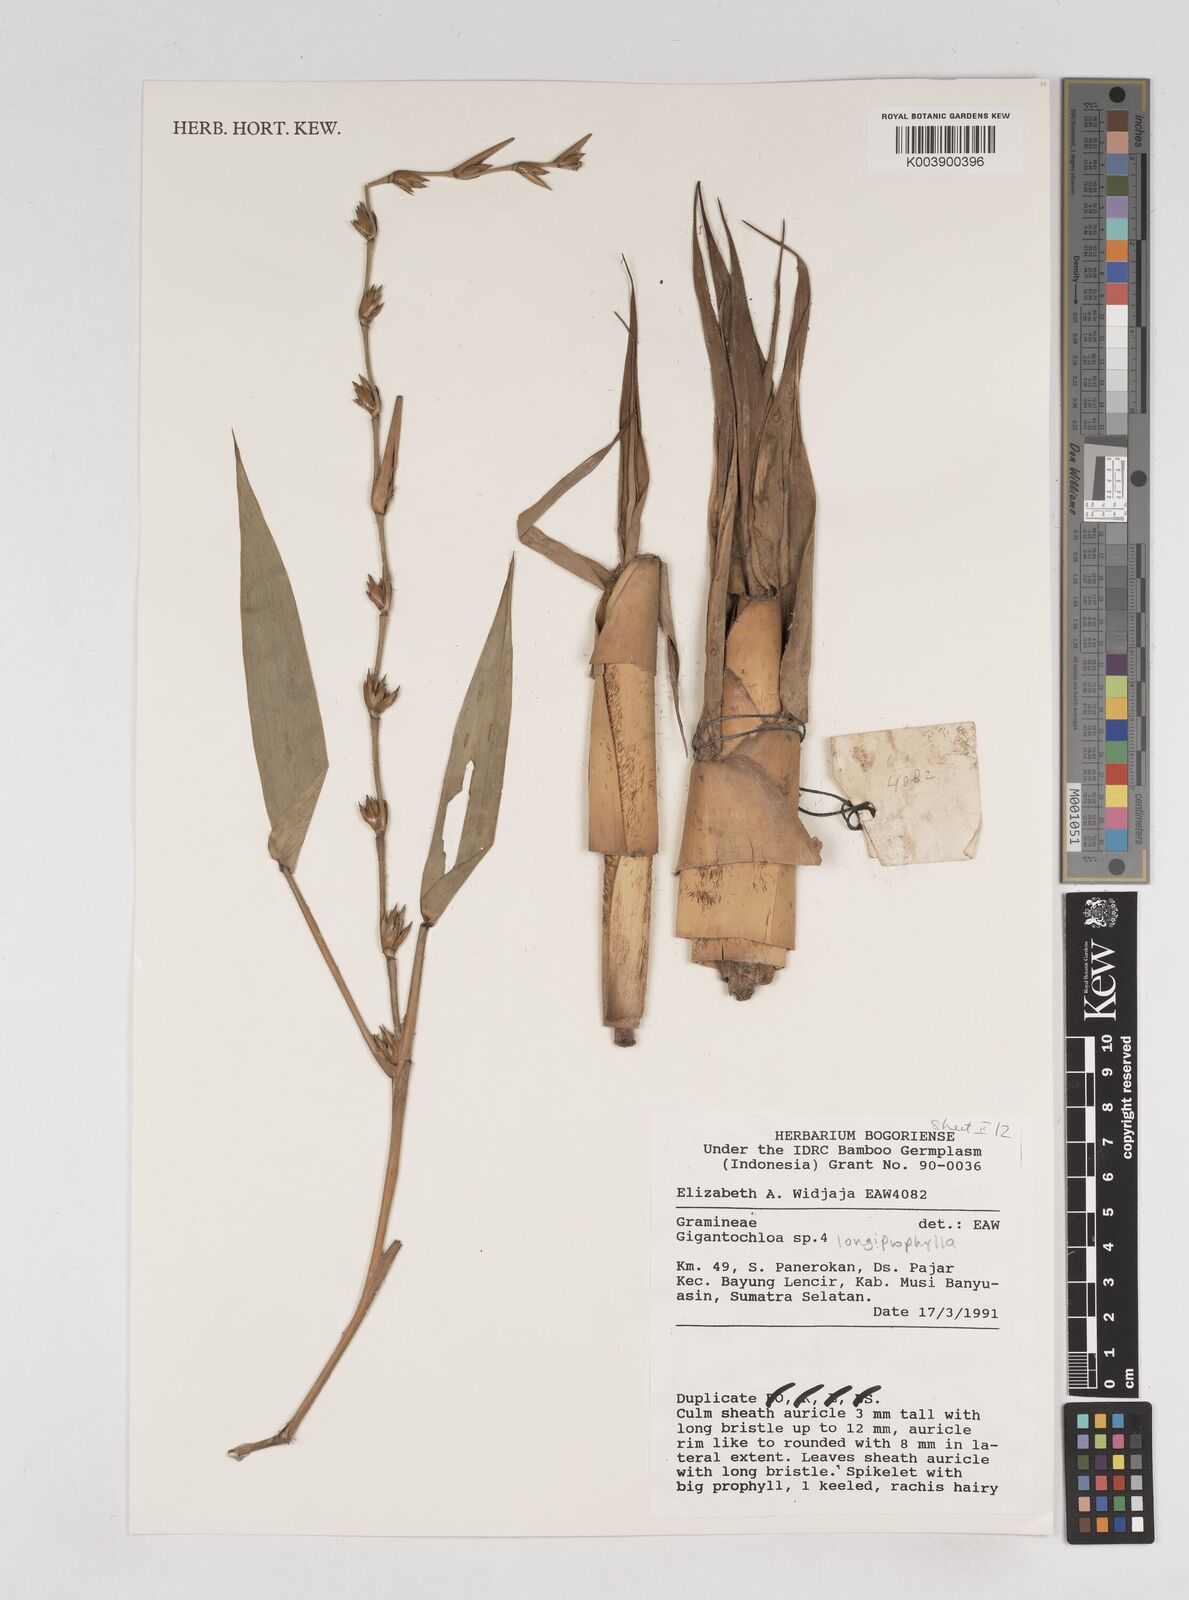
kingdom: Plantae
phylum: Tracheophyta
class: Liliopsida
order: Poales
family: Poaceae
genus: Gigantochloa
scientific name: Gigantochloa longiprophylla
